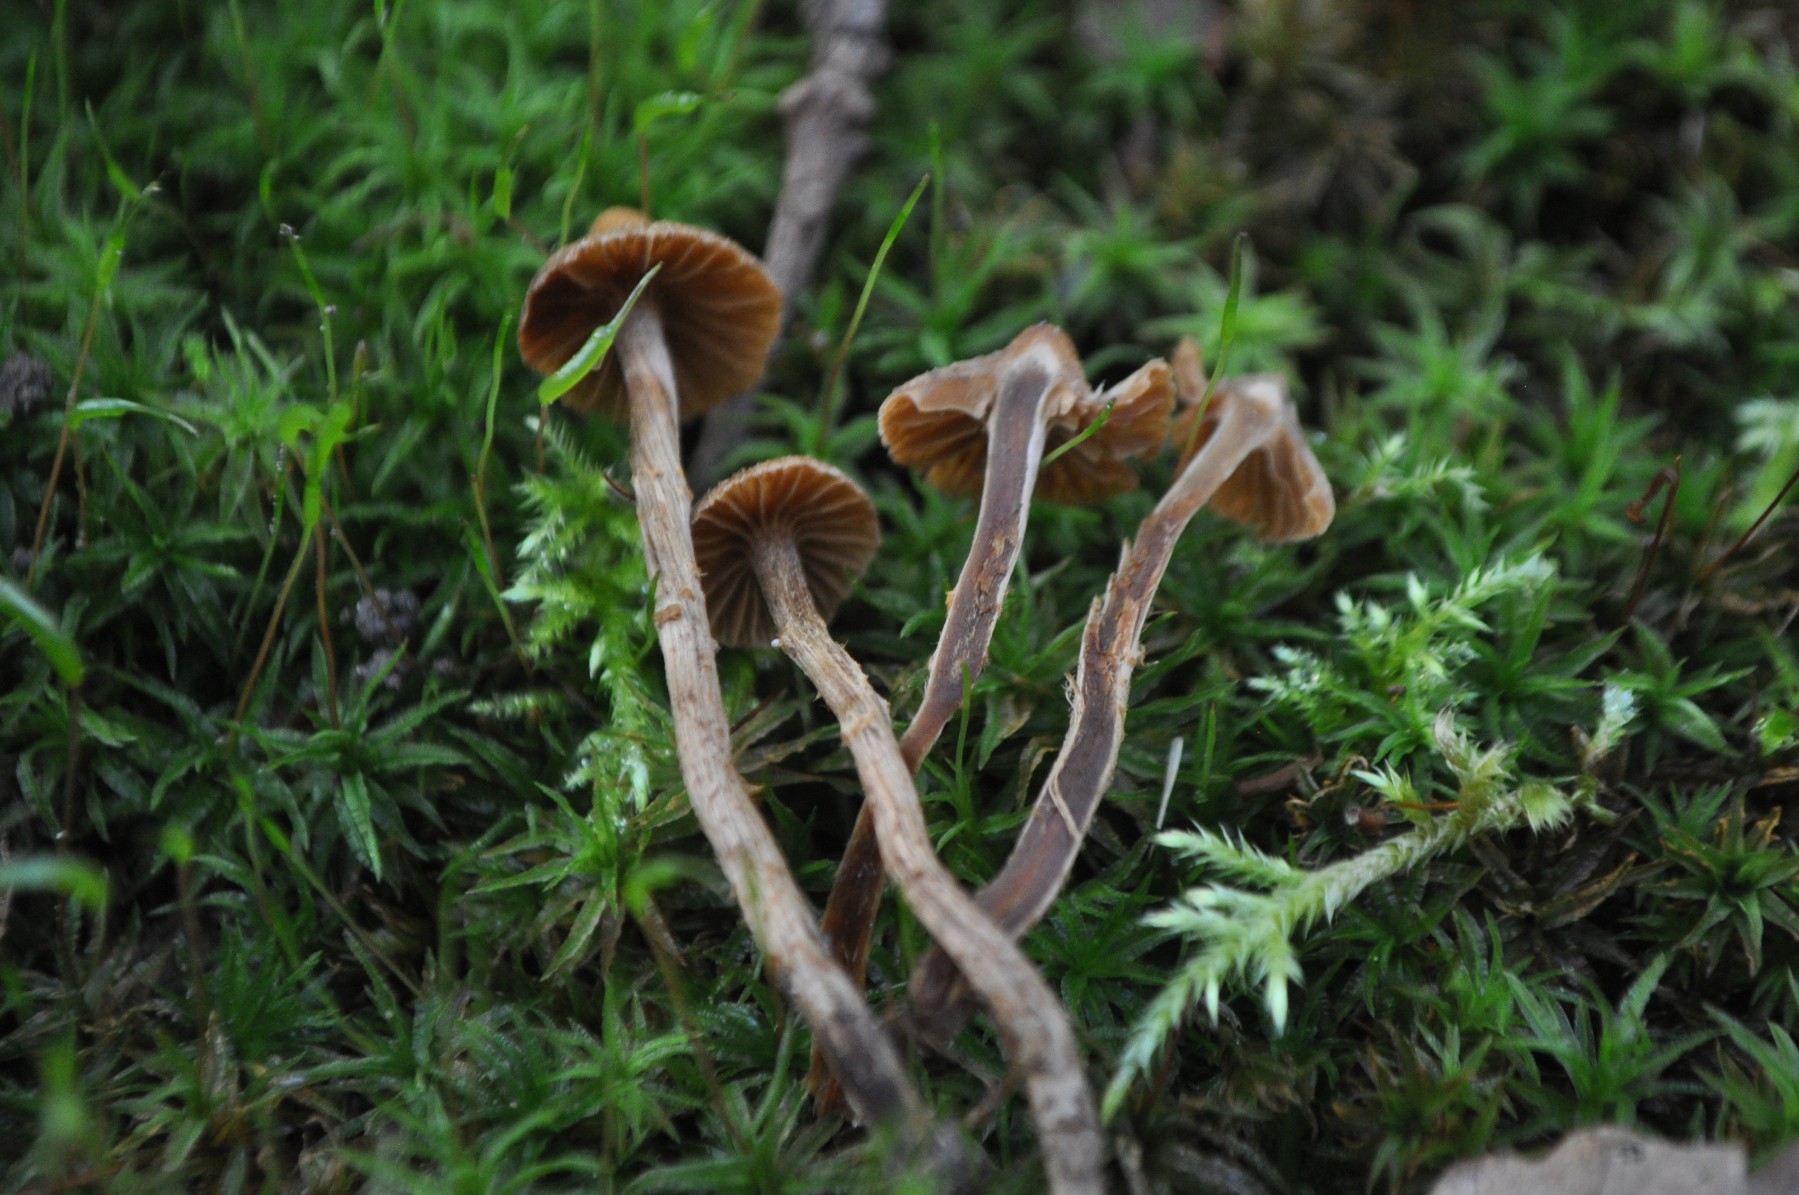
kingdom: Fungi
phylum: Basidiomycota
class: Agaricomycetes
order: Agaricales
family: Cortinariaceae
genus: Cortinarius
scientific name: Cortinarius quercoconicus
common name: agernskål-slørhat
